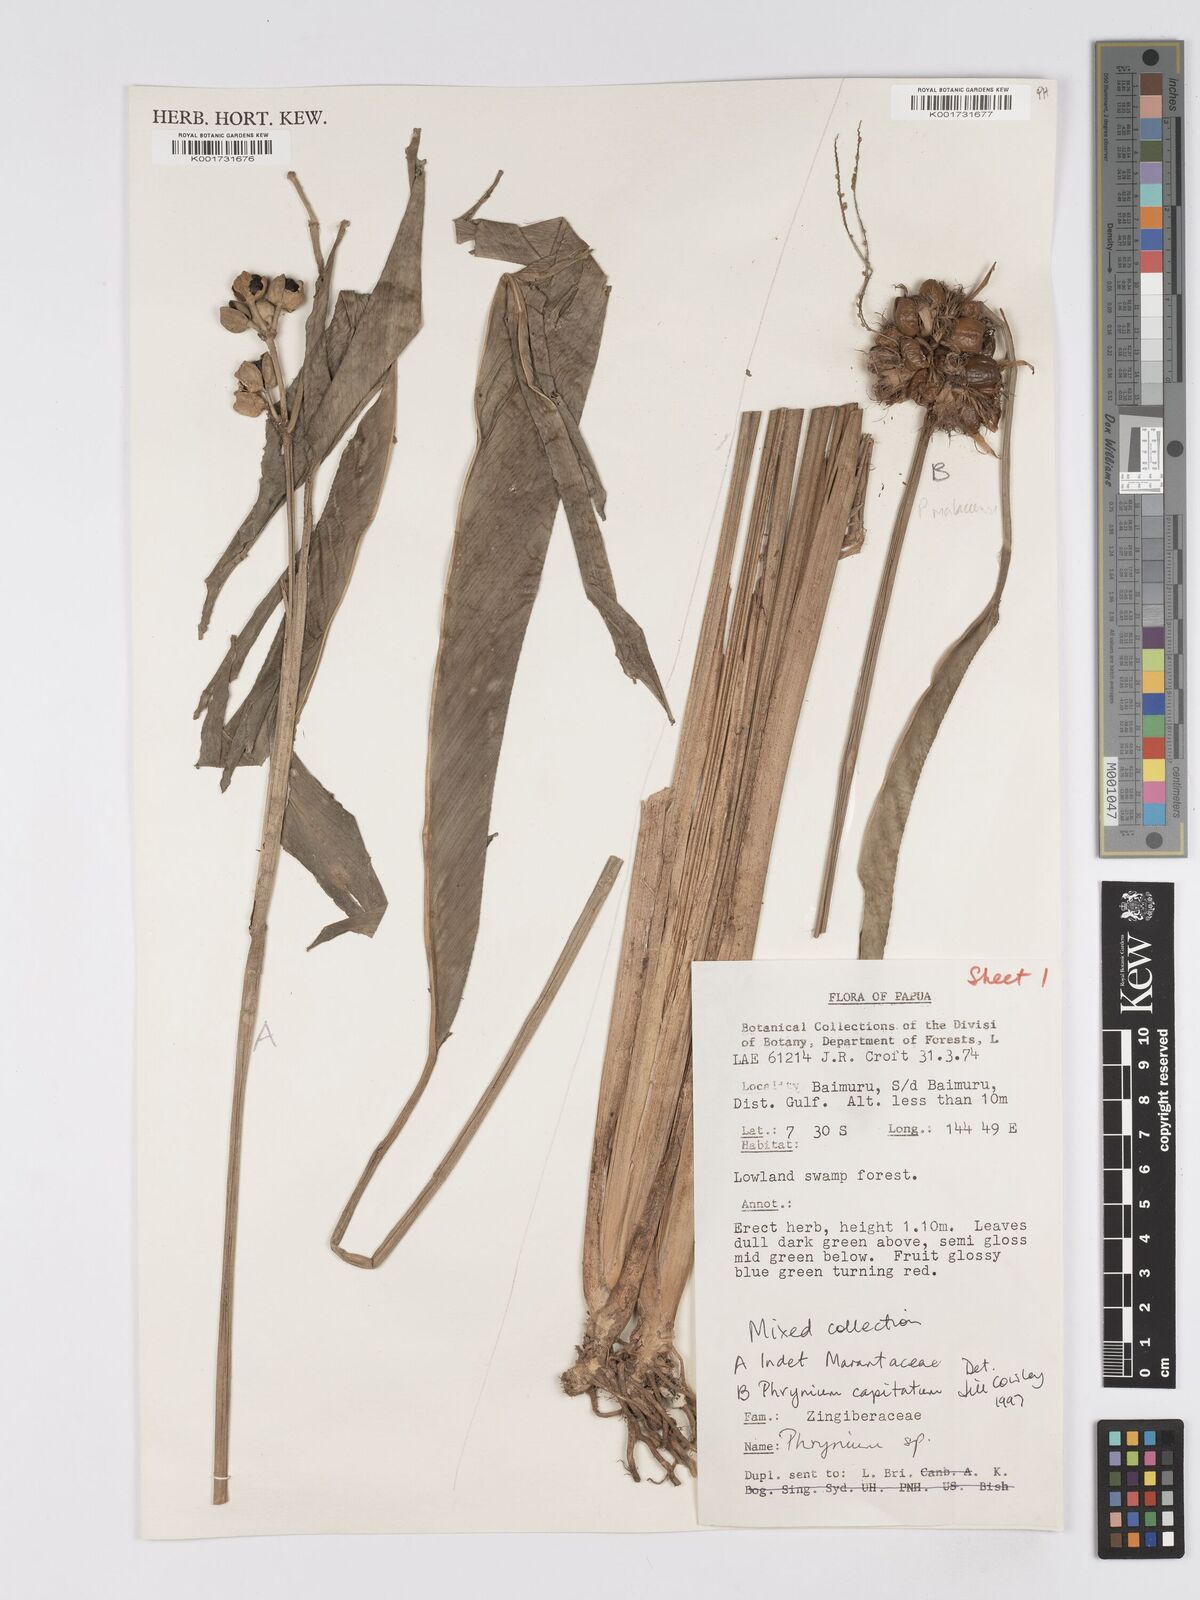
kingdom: Plantae
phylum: Tracheophyta
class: Liliopsida
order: Zingiberales
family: Marantaceae
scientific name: Marantaceae
